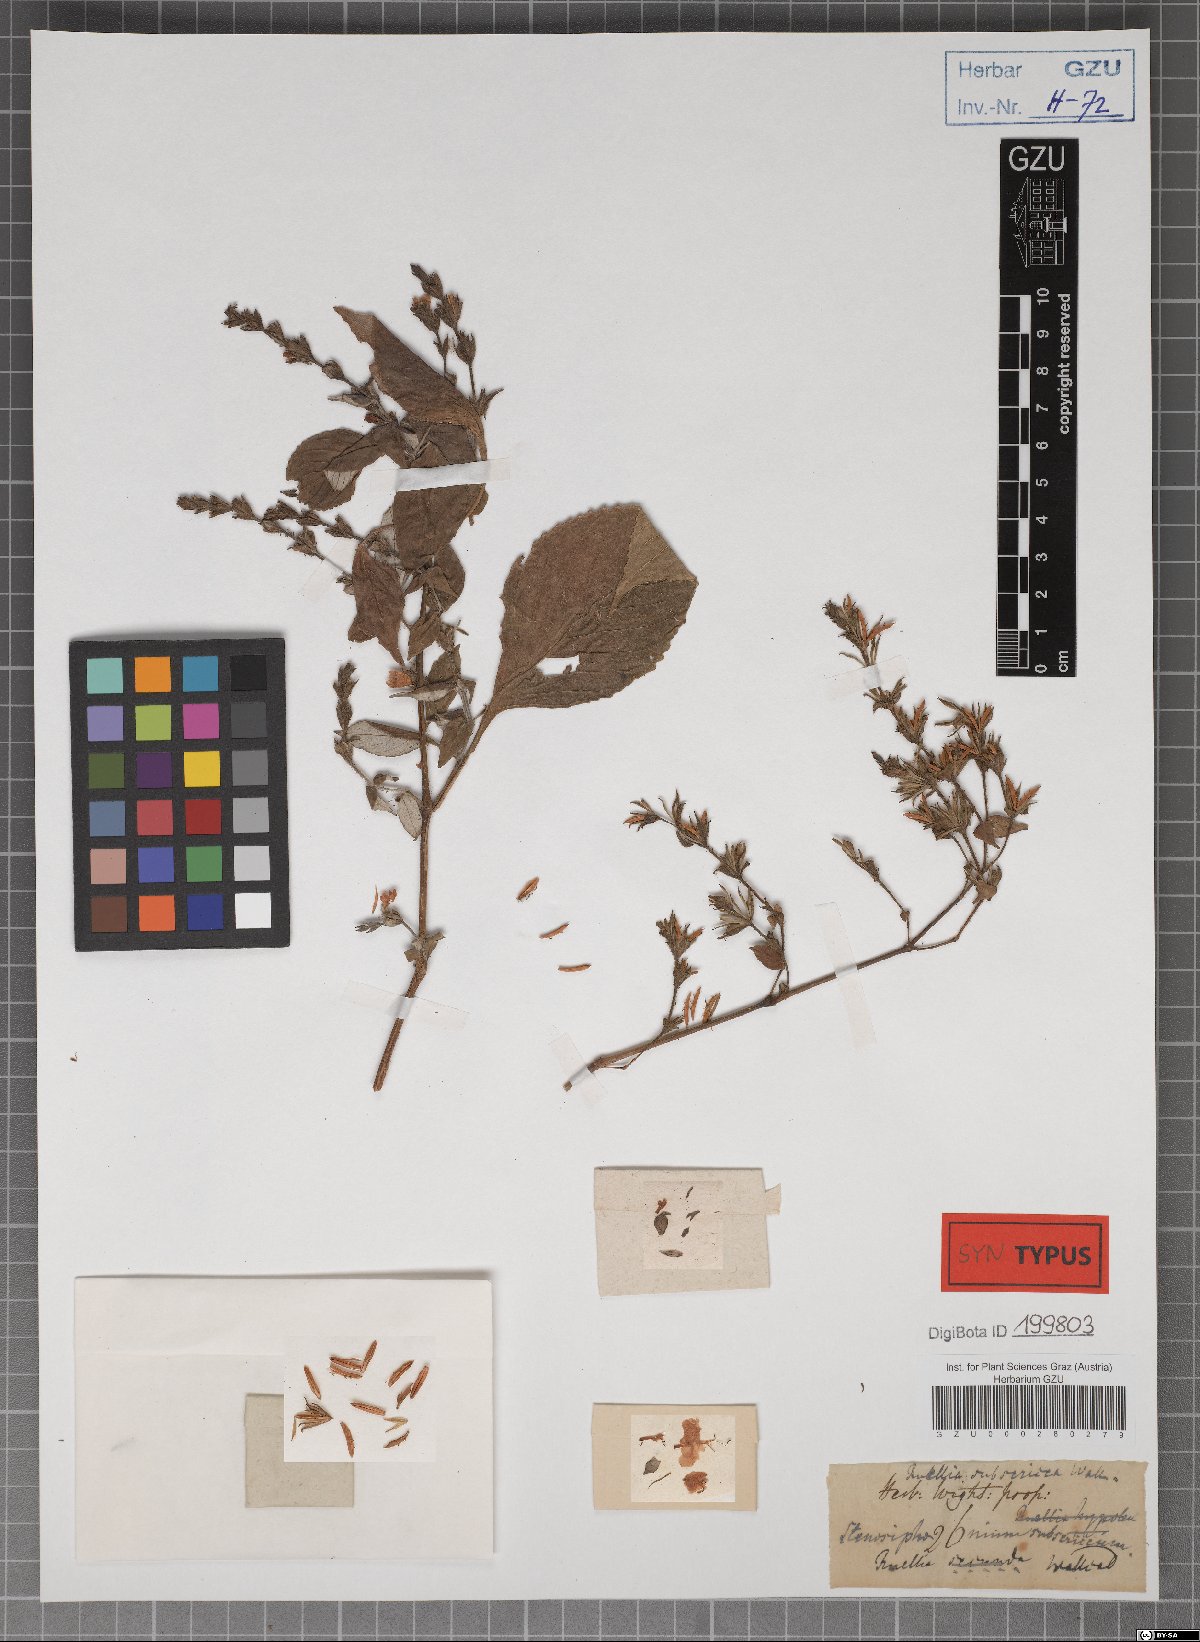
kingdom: Plantae
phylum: Tracheophyta
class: Magnoliopsida
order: Lamiales
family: Acanthaceae
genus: Strobilanthes
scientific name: Strobilanthes cordifolia
